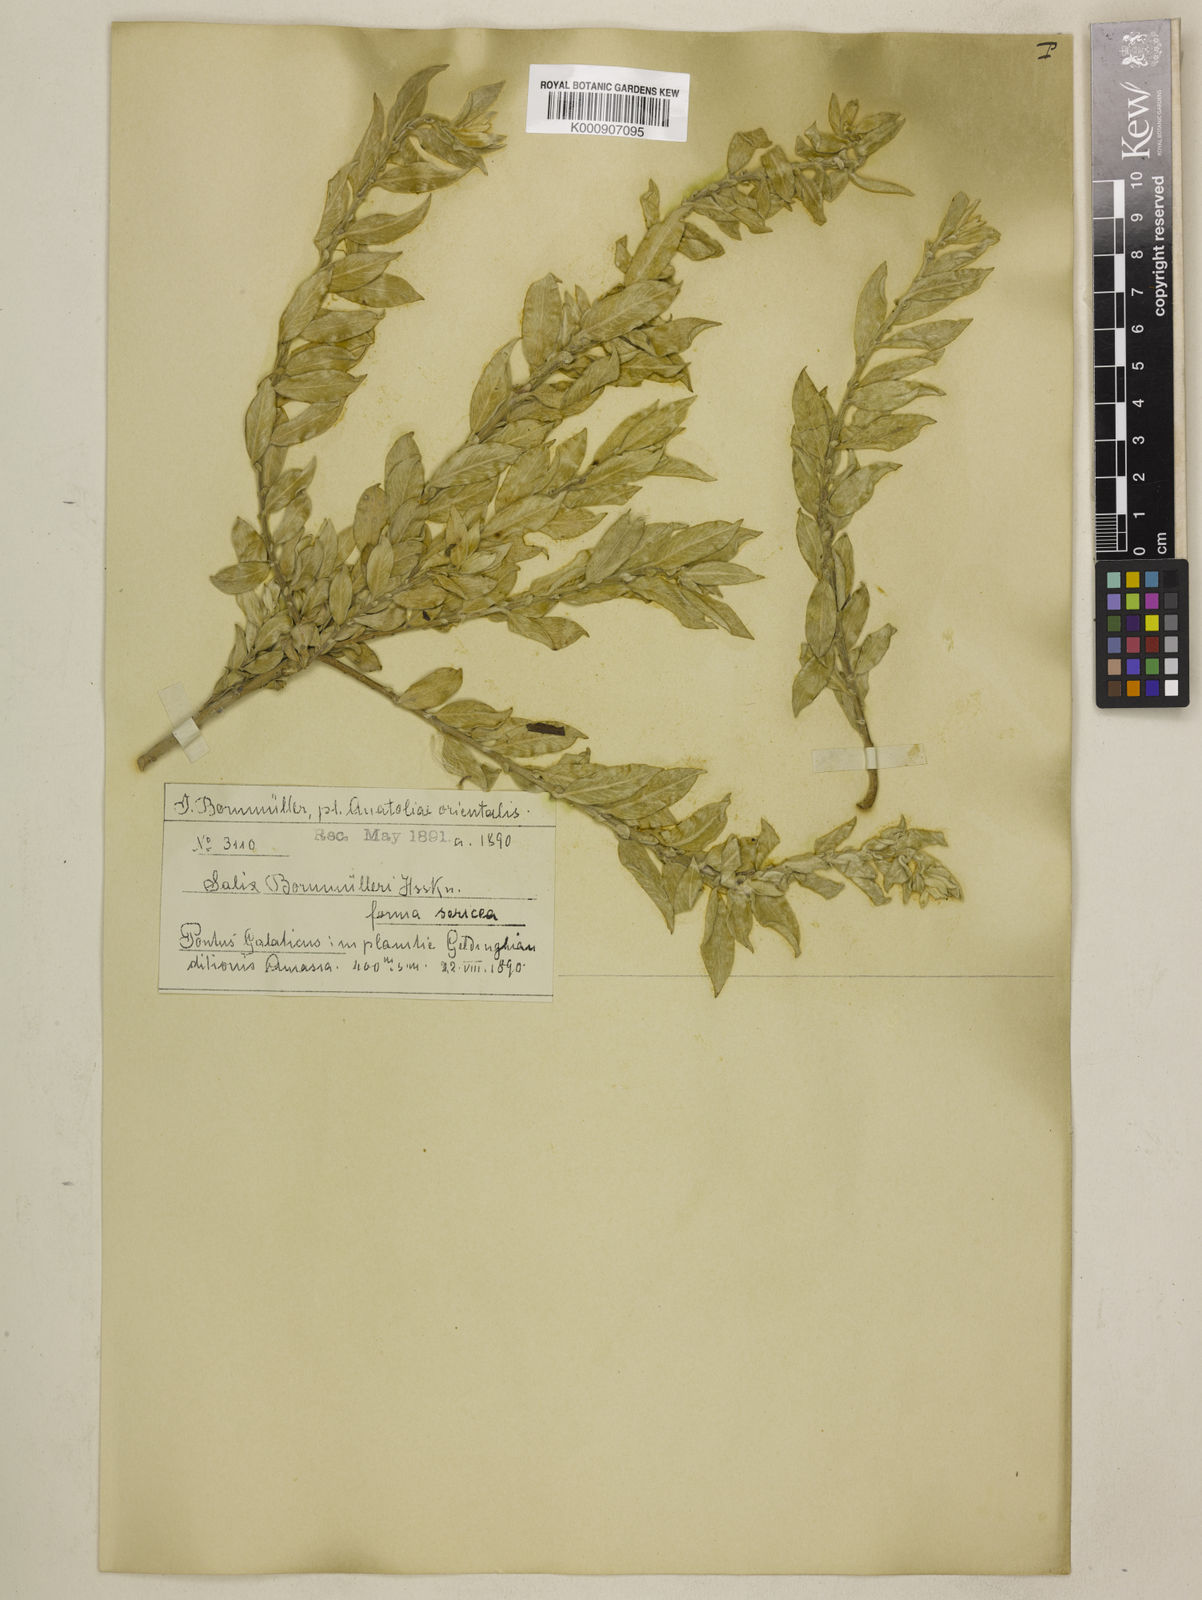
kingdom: Plantae
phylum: Tracheophyta
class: Magnoliopsida
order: Malpighiales
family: Salicaceae
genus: Salix
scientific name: Salix triandra
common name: Almond willow
